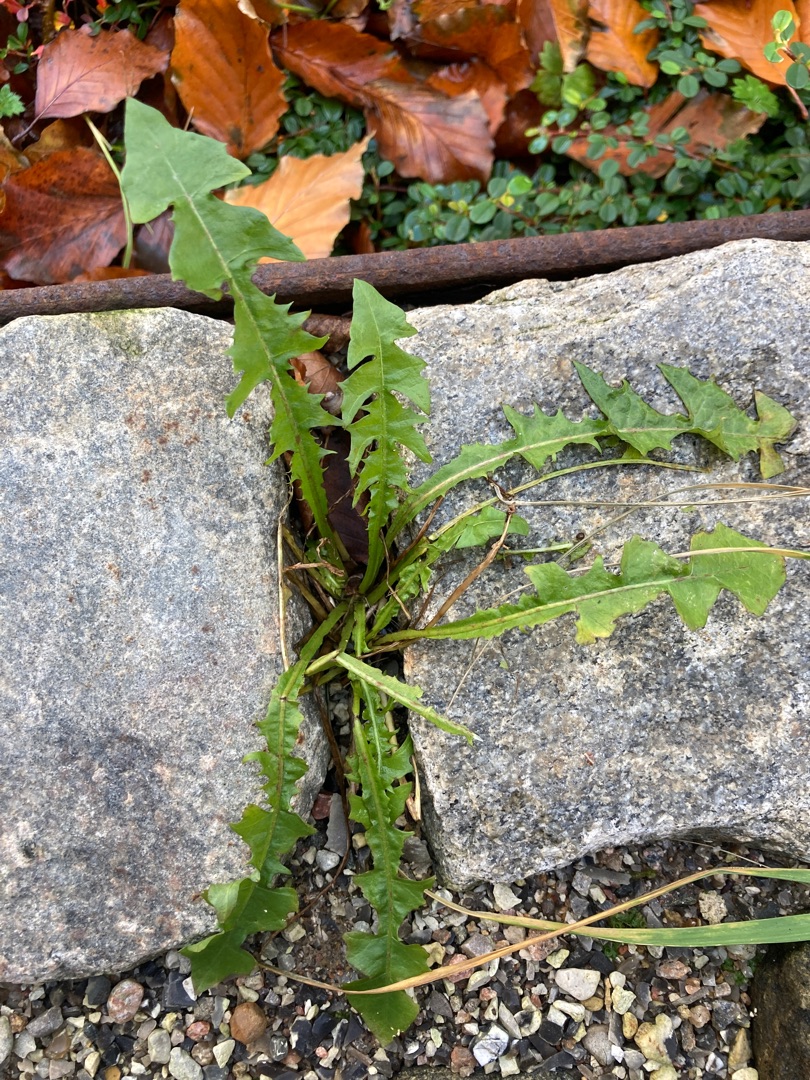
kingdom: Plantae
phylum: Tracheophyta
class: Magnoliopsida
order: Asterales
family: Asteraceae
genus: Taraxacum
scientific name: Taraxacum
